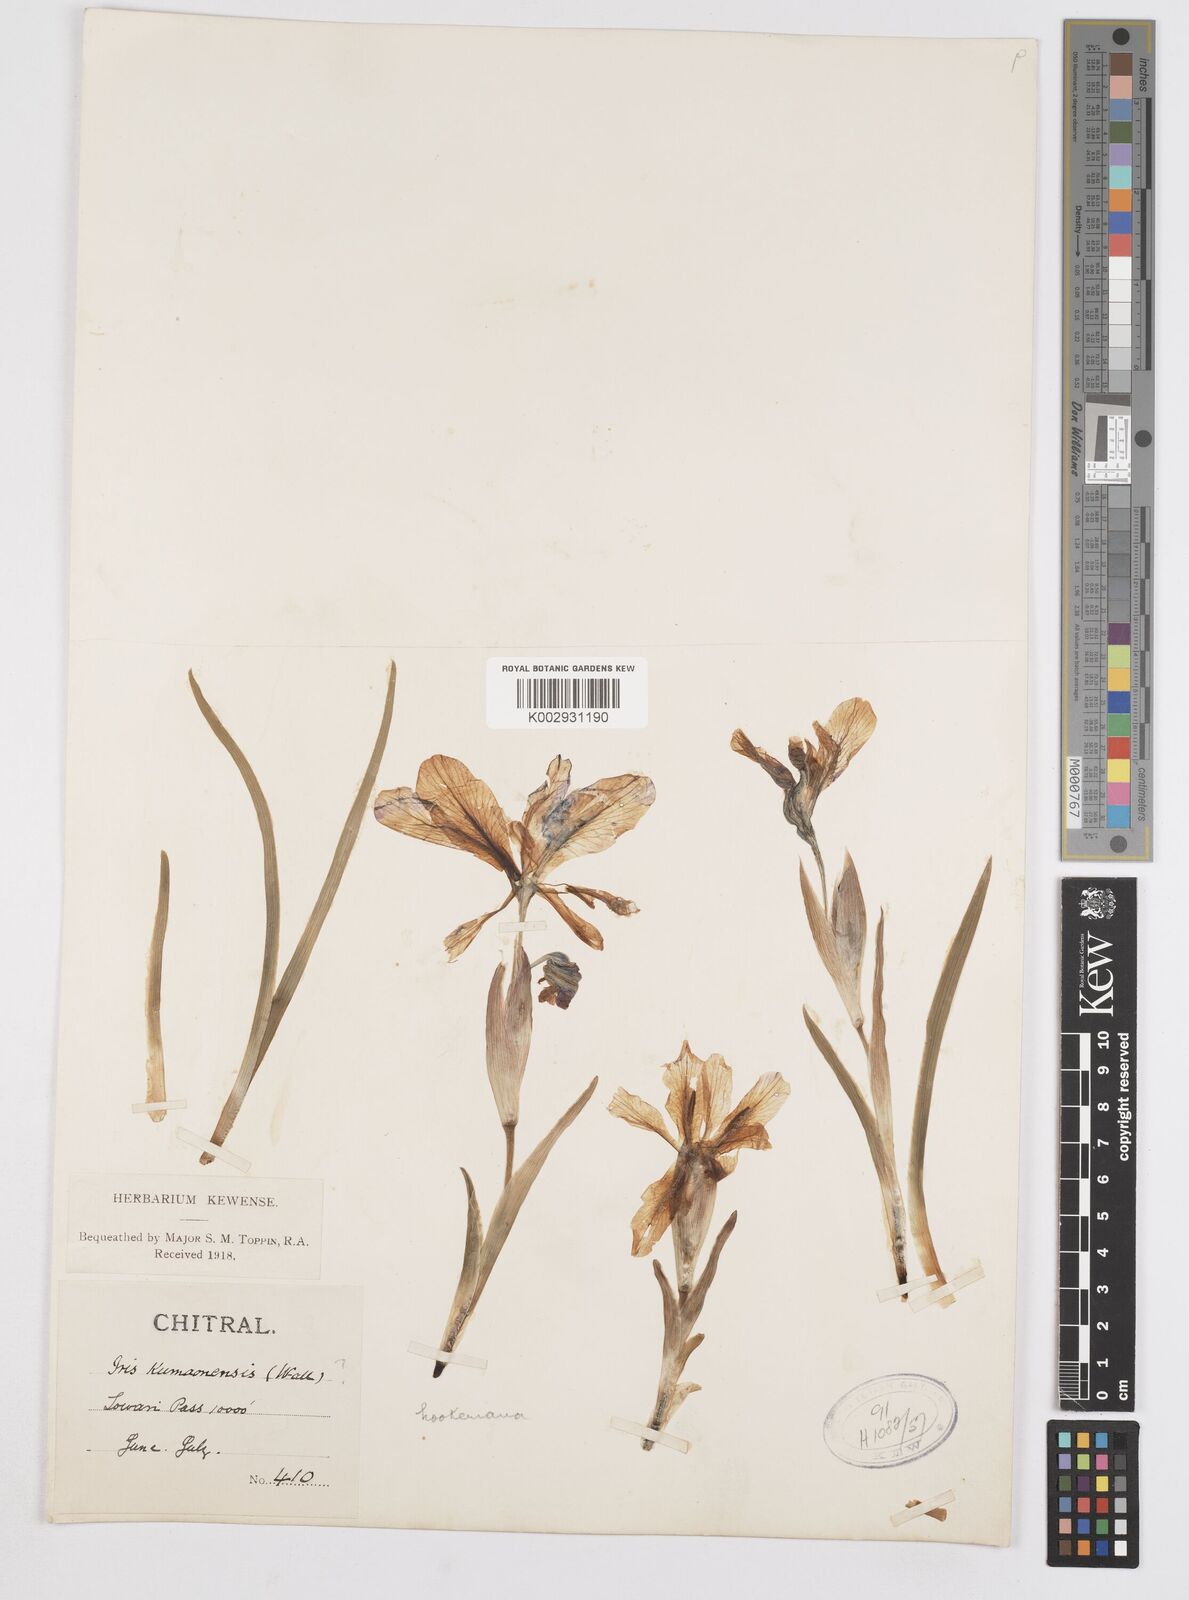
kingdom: Plantae
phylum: Tracheophyta
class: Liliopsida
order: Asparagales
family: Iridaceae
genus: Iris
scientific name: Iris hookeriana
